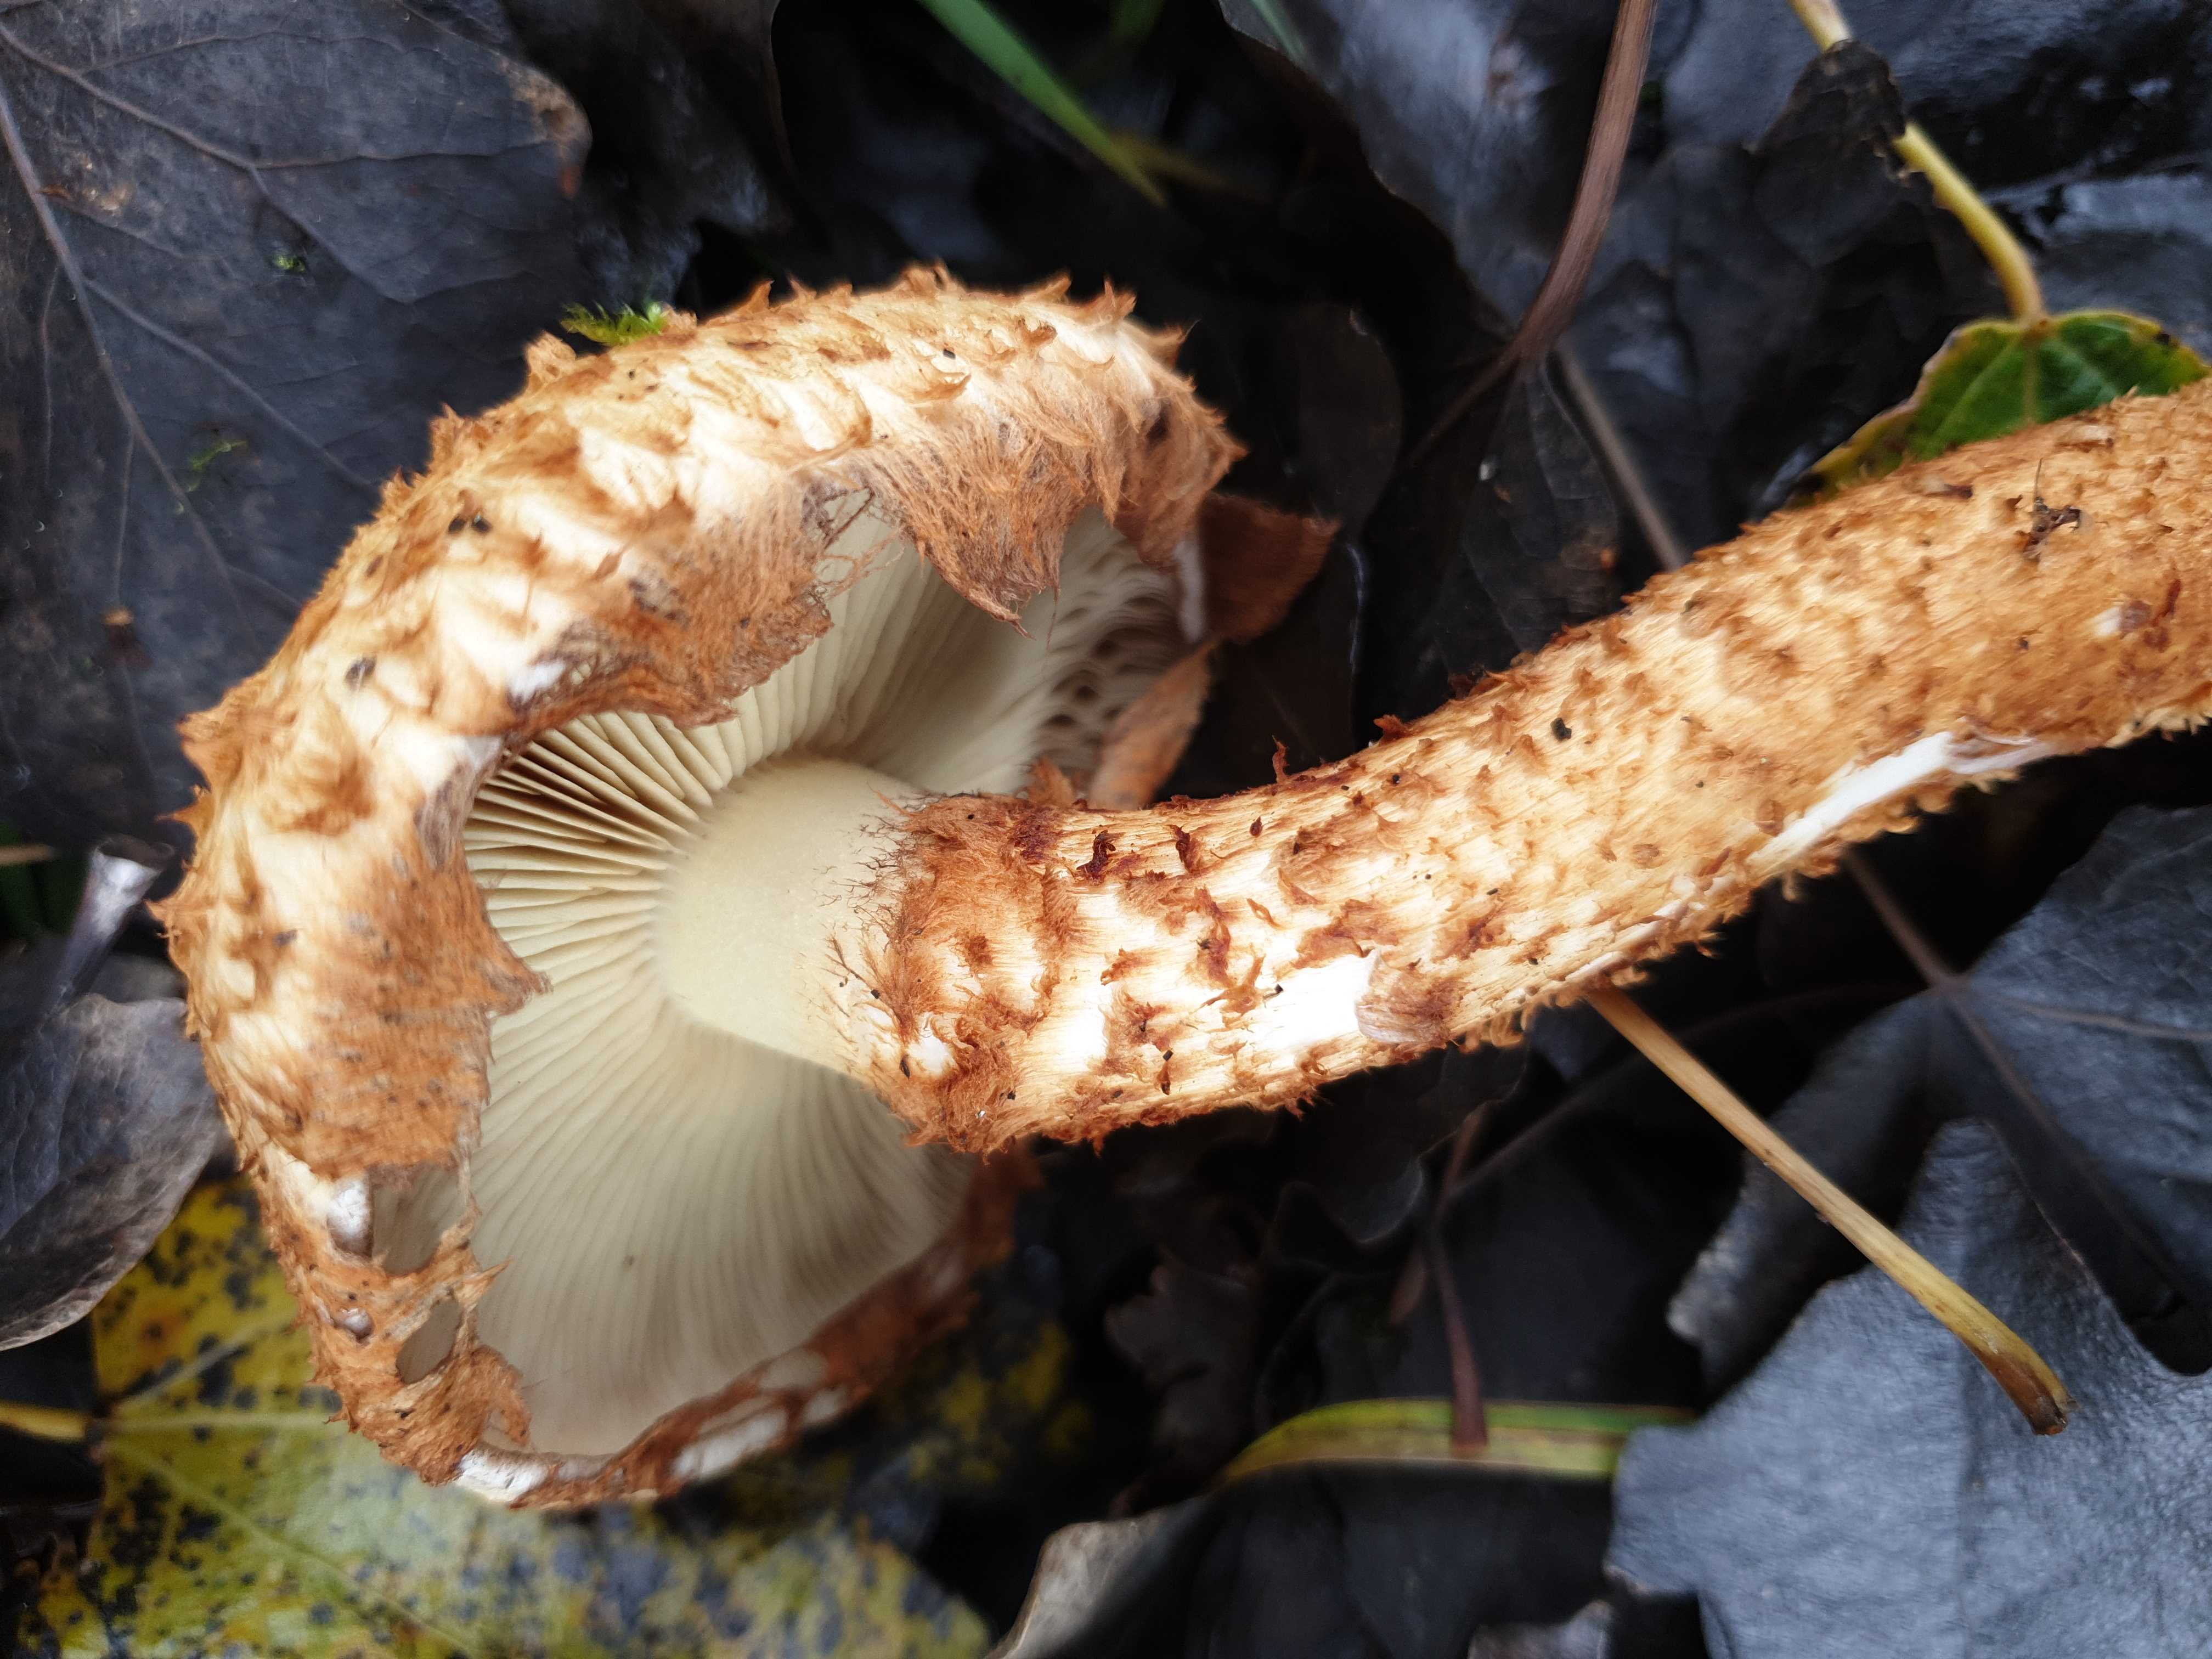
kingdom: Fungi
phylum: Basidiomycota
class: Agaricomycetes
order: Agaricales
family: Strophariaceae
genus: Pholiota
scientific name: Pholiota squarrosa
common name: krumskællet skælhat
